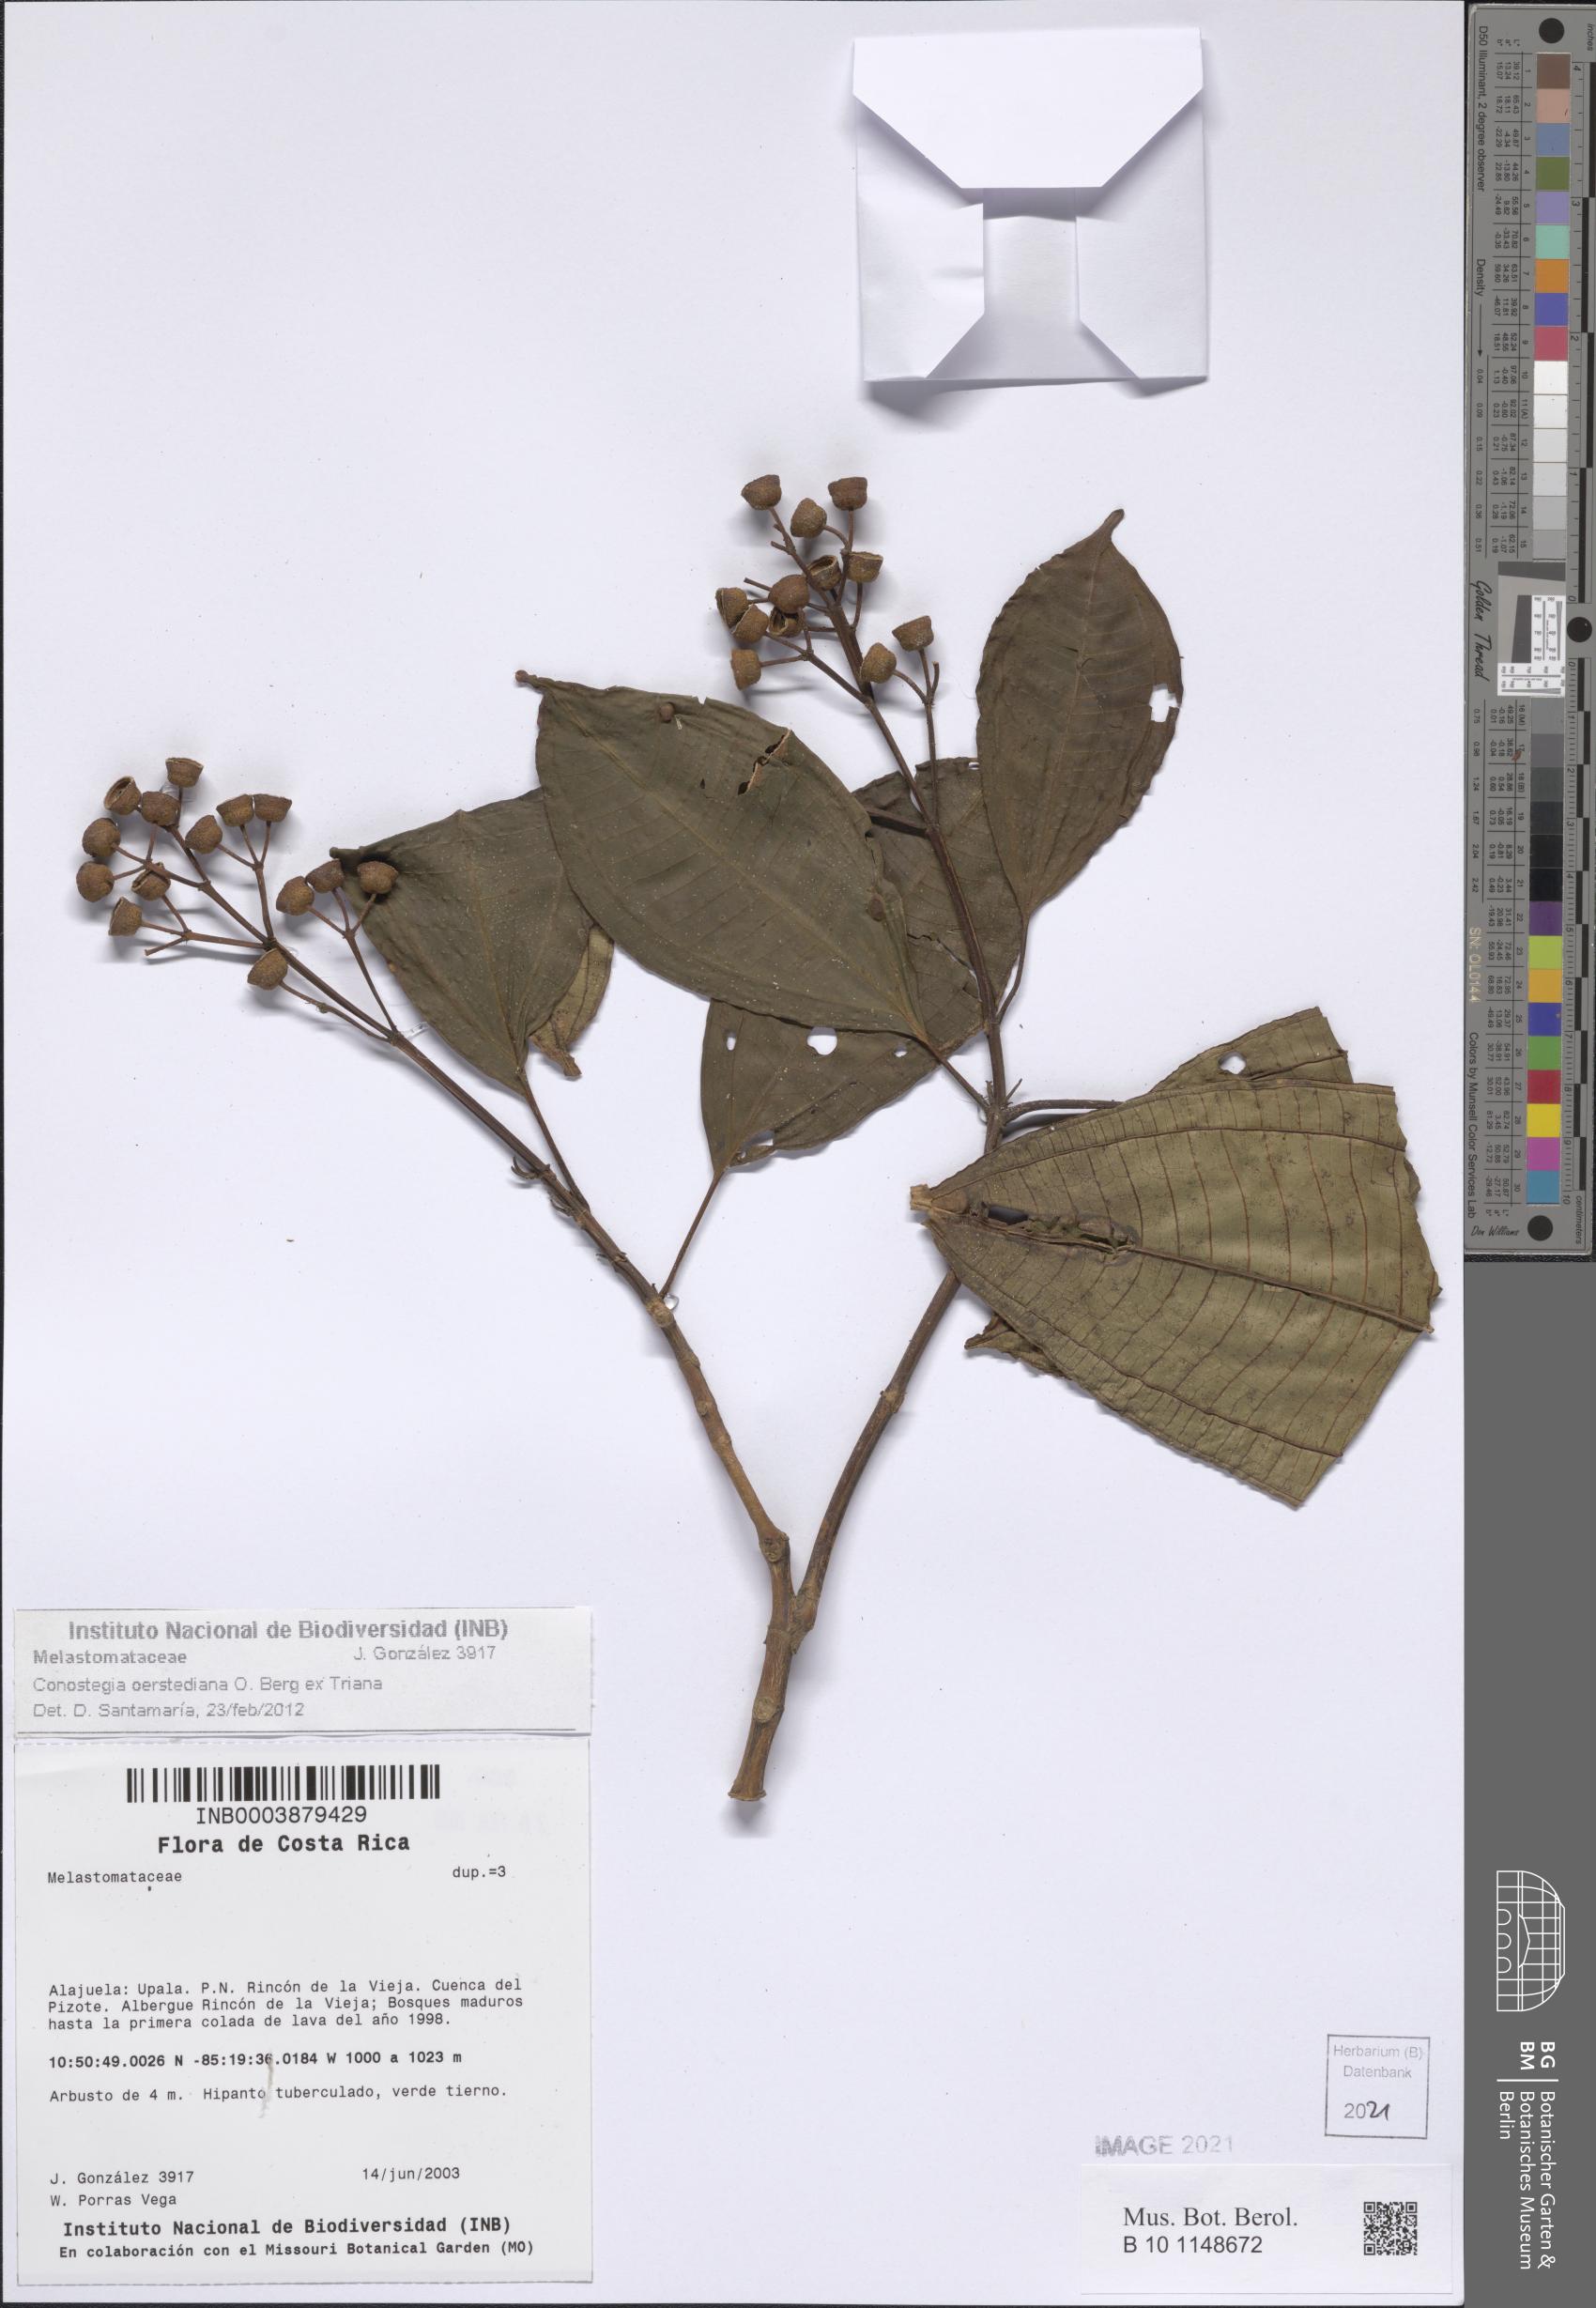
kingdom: Plantae
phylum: Tracheophyta
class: Magnoliopsida
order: Myrtales
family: Melastomataceae
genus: Miconia
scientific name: Miconia oerstediana
